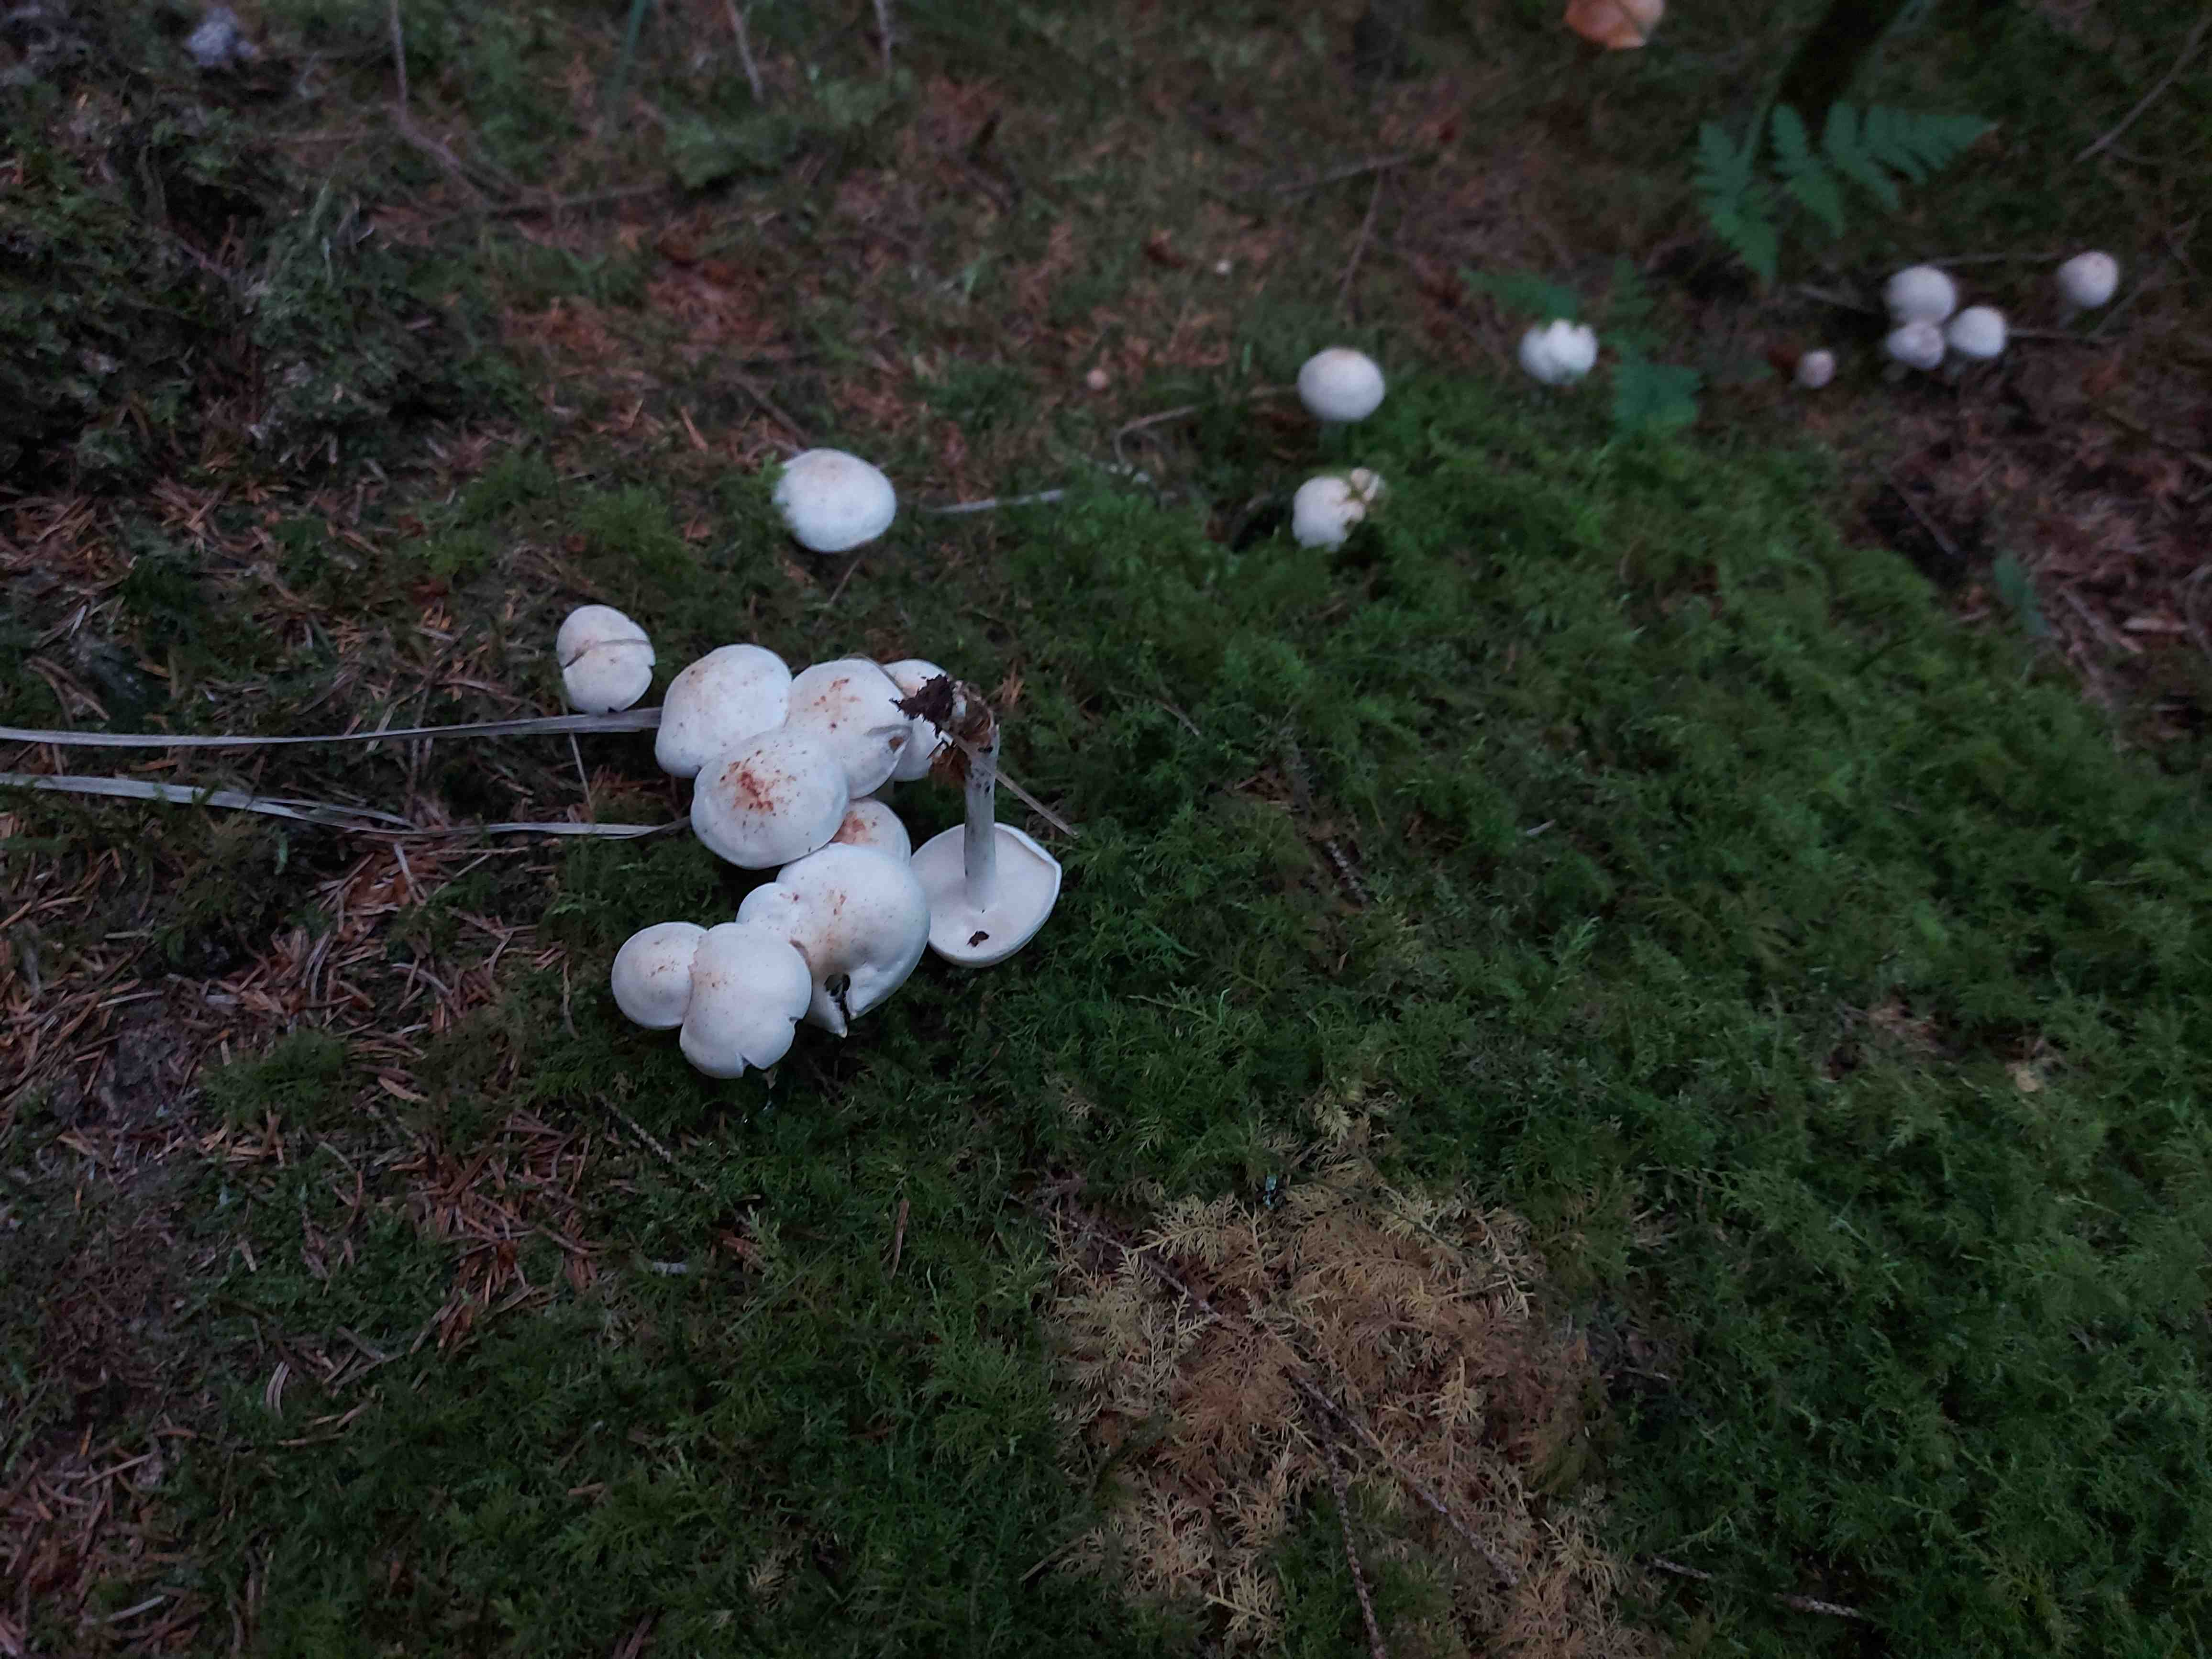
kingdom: Fungi
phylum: Basidiomycota
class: Agaricomycetes
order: Agaricales
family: Omphalotaceae
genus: Rhodocollybia
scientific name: Rhodocollybia maculata
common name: plettet fladhat
